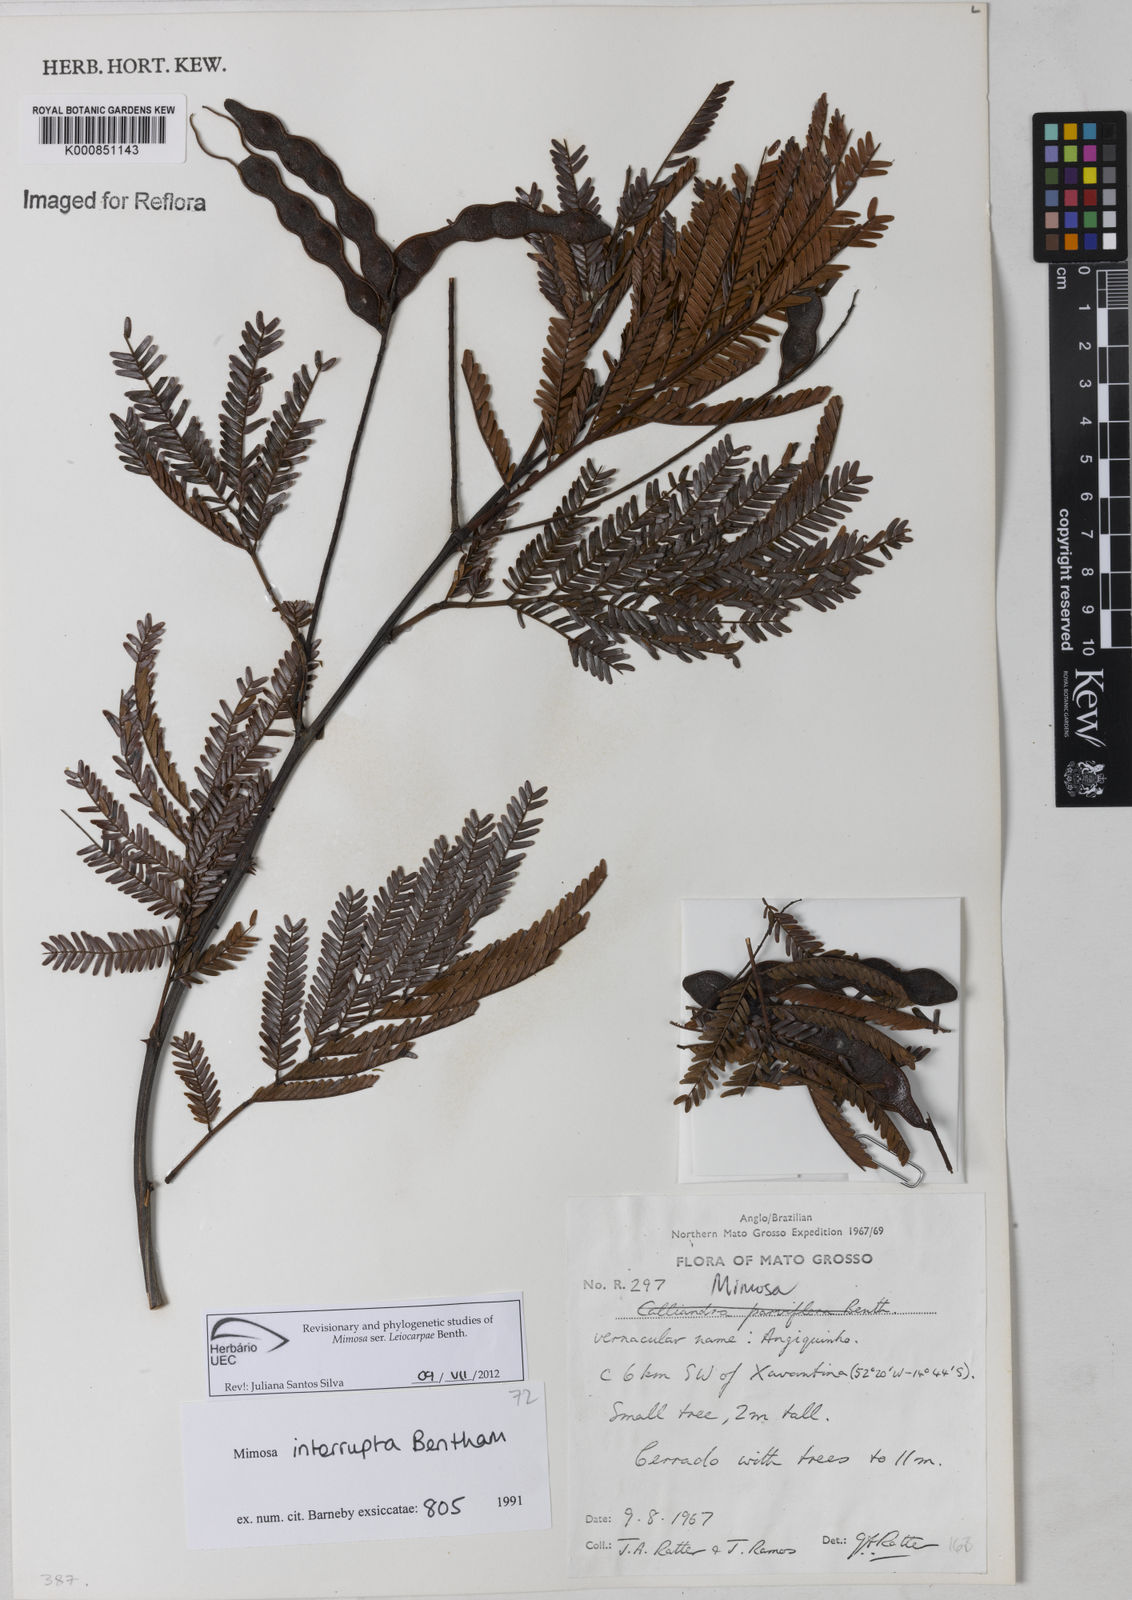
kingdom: Plantae
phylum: Tracheophyta
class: Magnoliopsida
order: Fabales
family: Fabaceae
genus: Mimosa
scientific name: Mimosa interrupta
